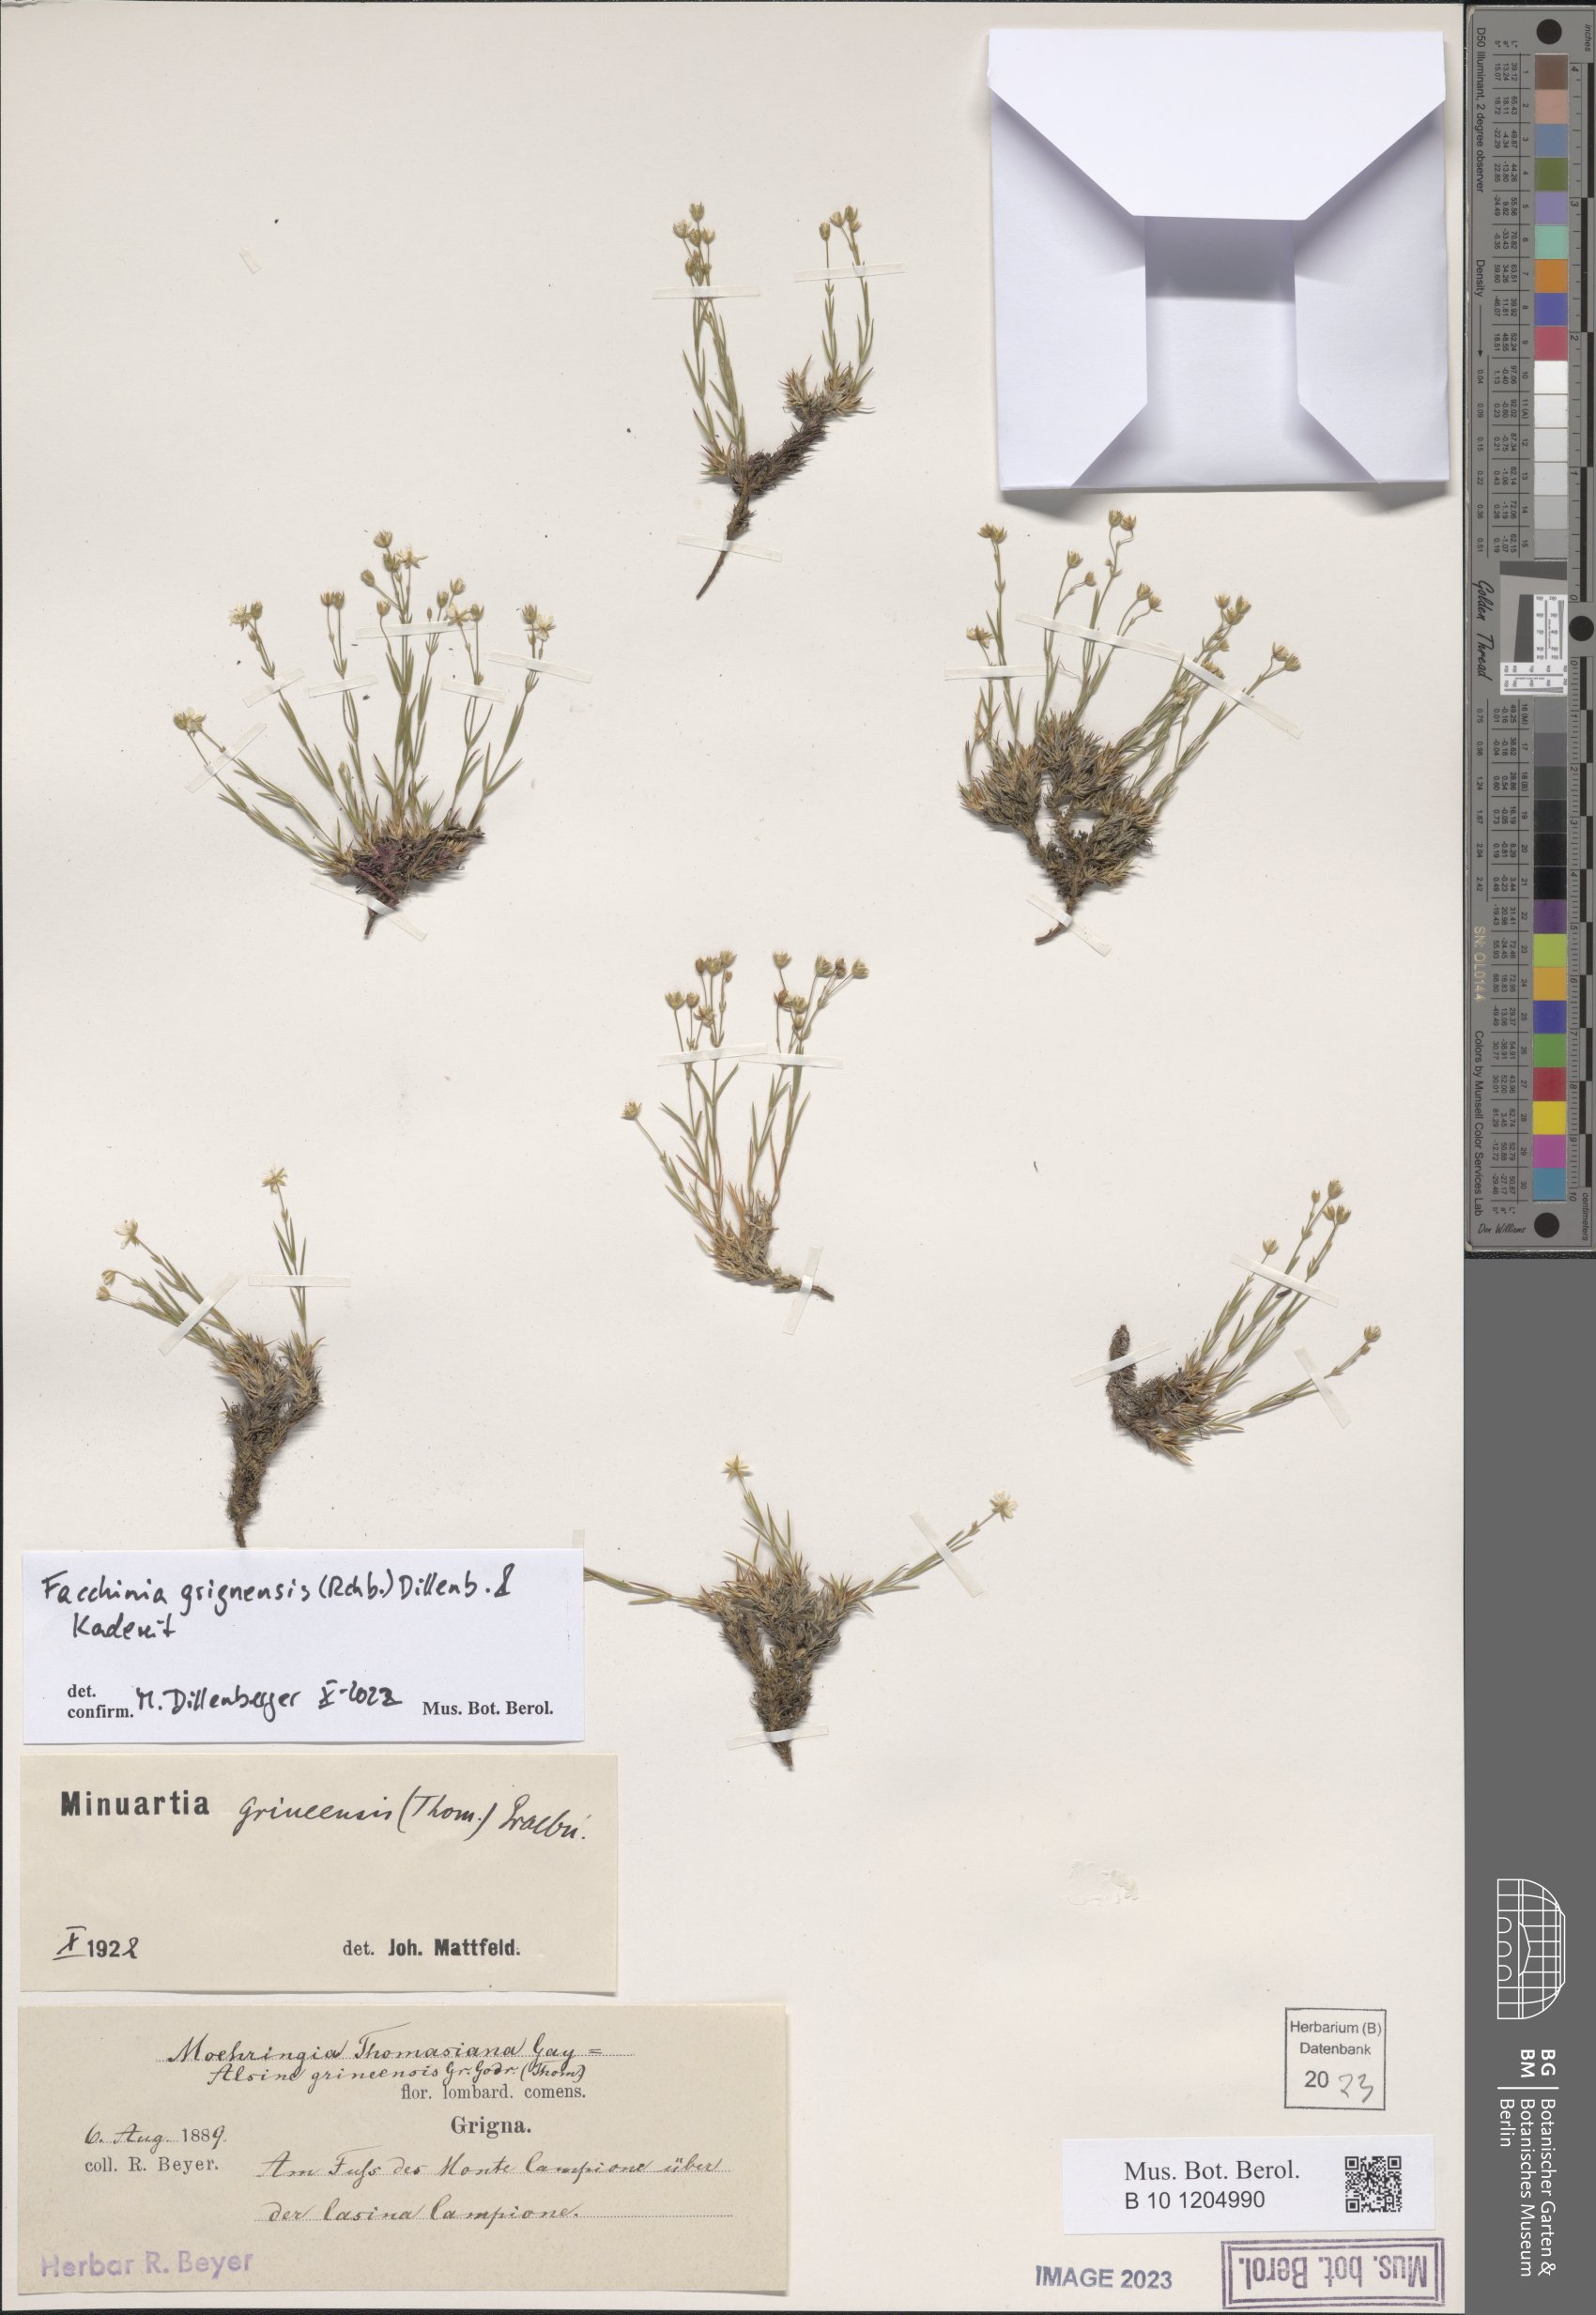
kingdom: Plantae
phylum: Tracheophyta
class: Magnoliopsida
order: Caryophyllales
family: Caryophyllaceae
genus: Facchinia
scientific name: Facchinia grignensis
